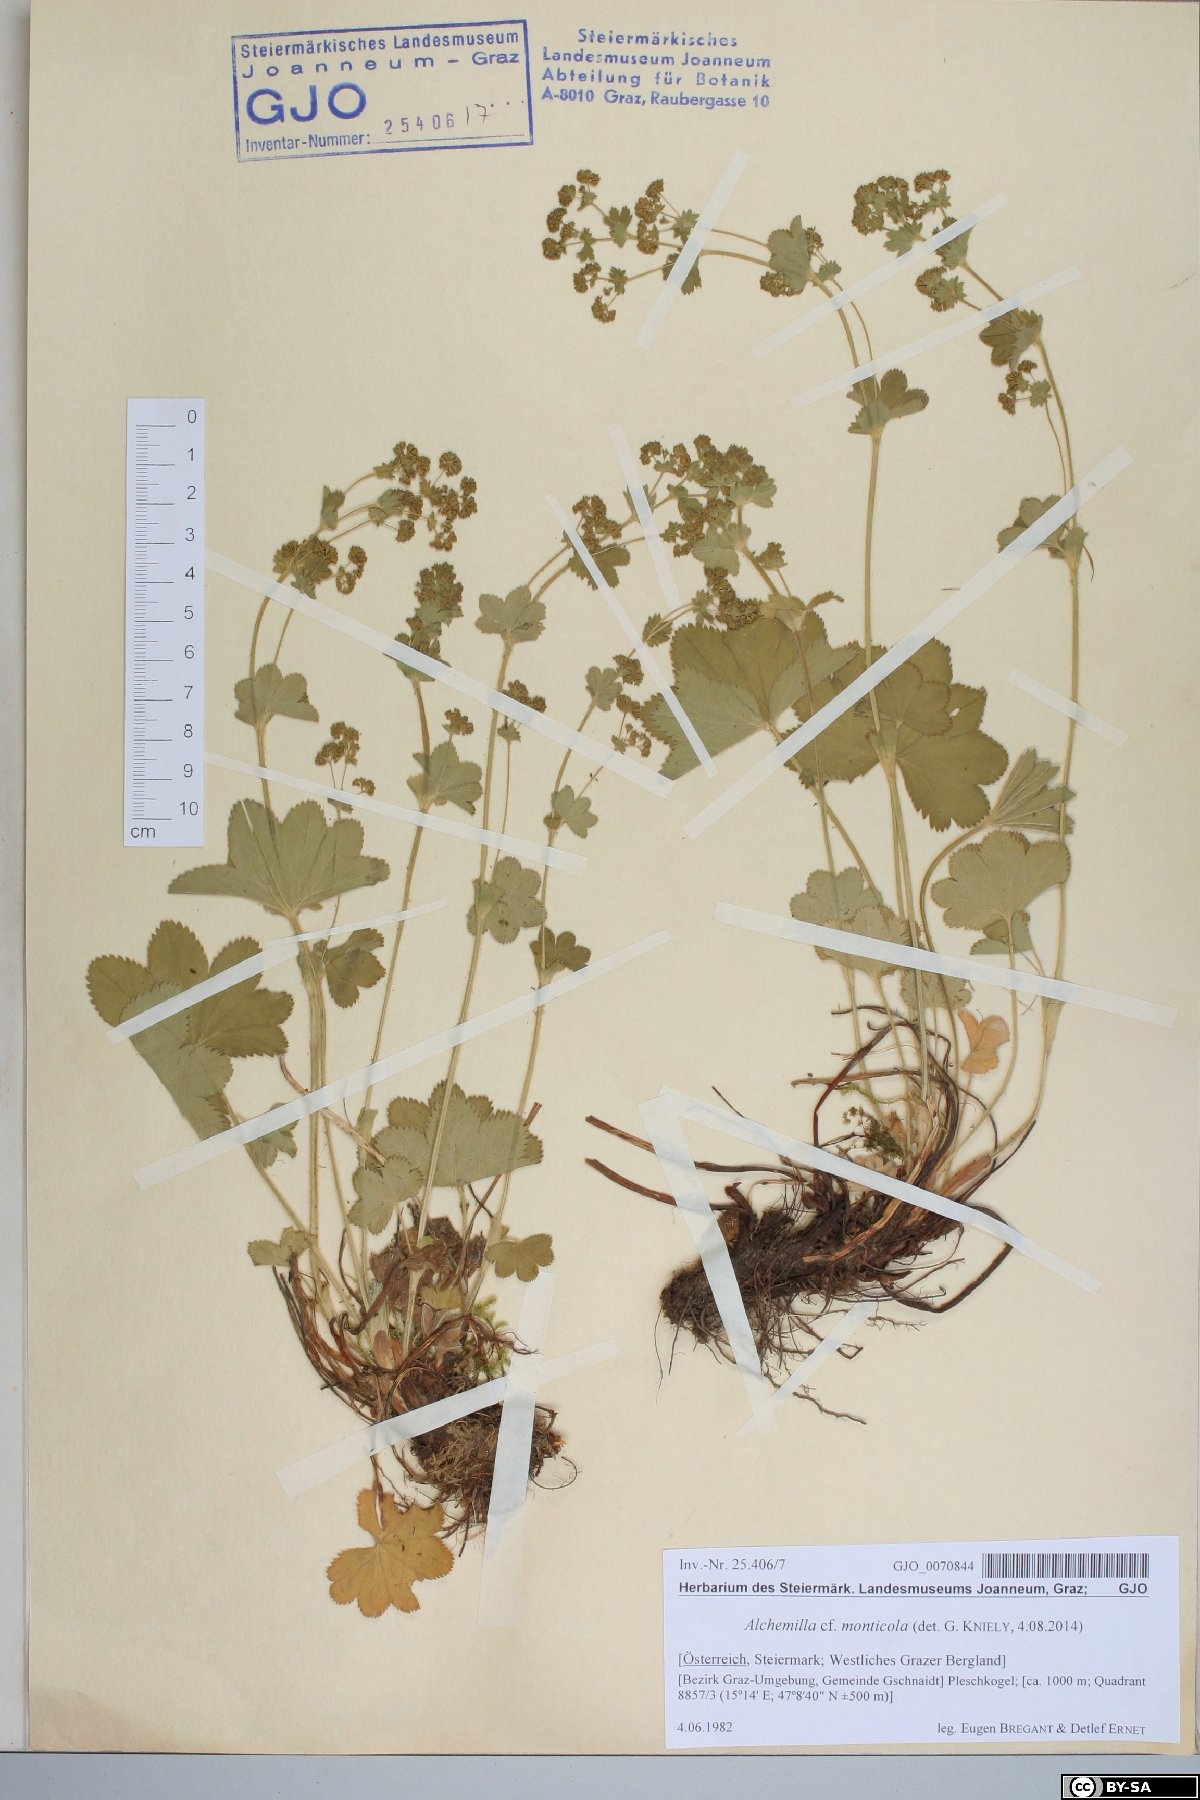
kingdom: Plantae
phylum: Tracheophyta
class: Magnoliopsida
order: Rosales
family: Rosaceae
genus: Alchemilla
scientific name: Alchemilla monticola
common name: Hairy lady's mantle
